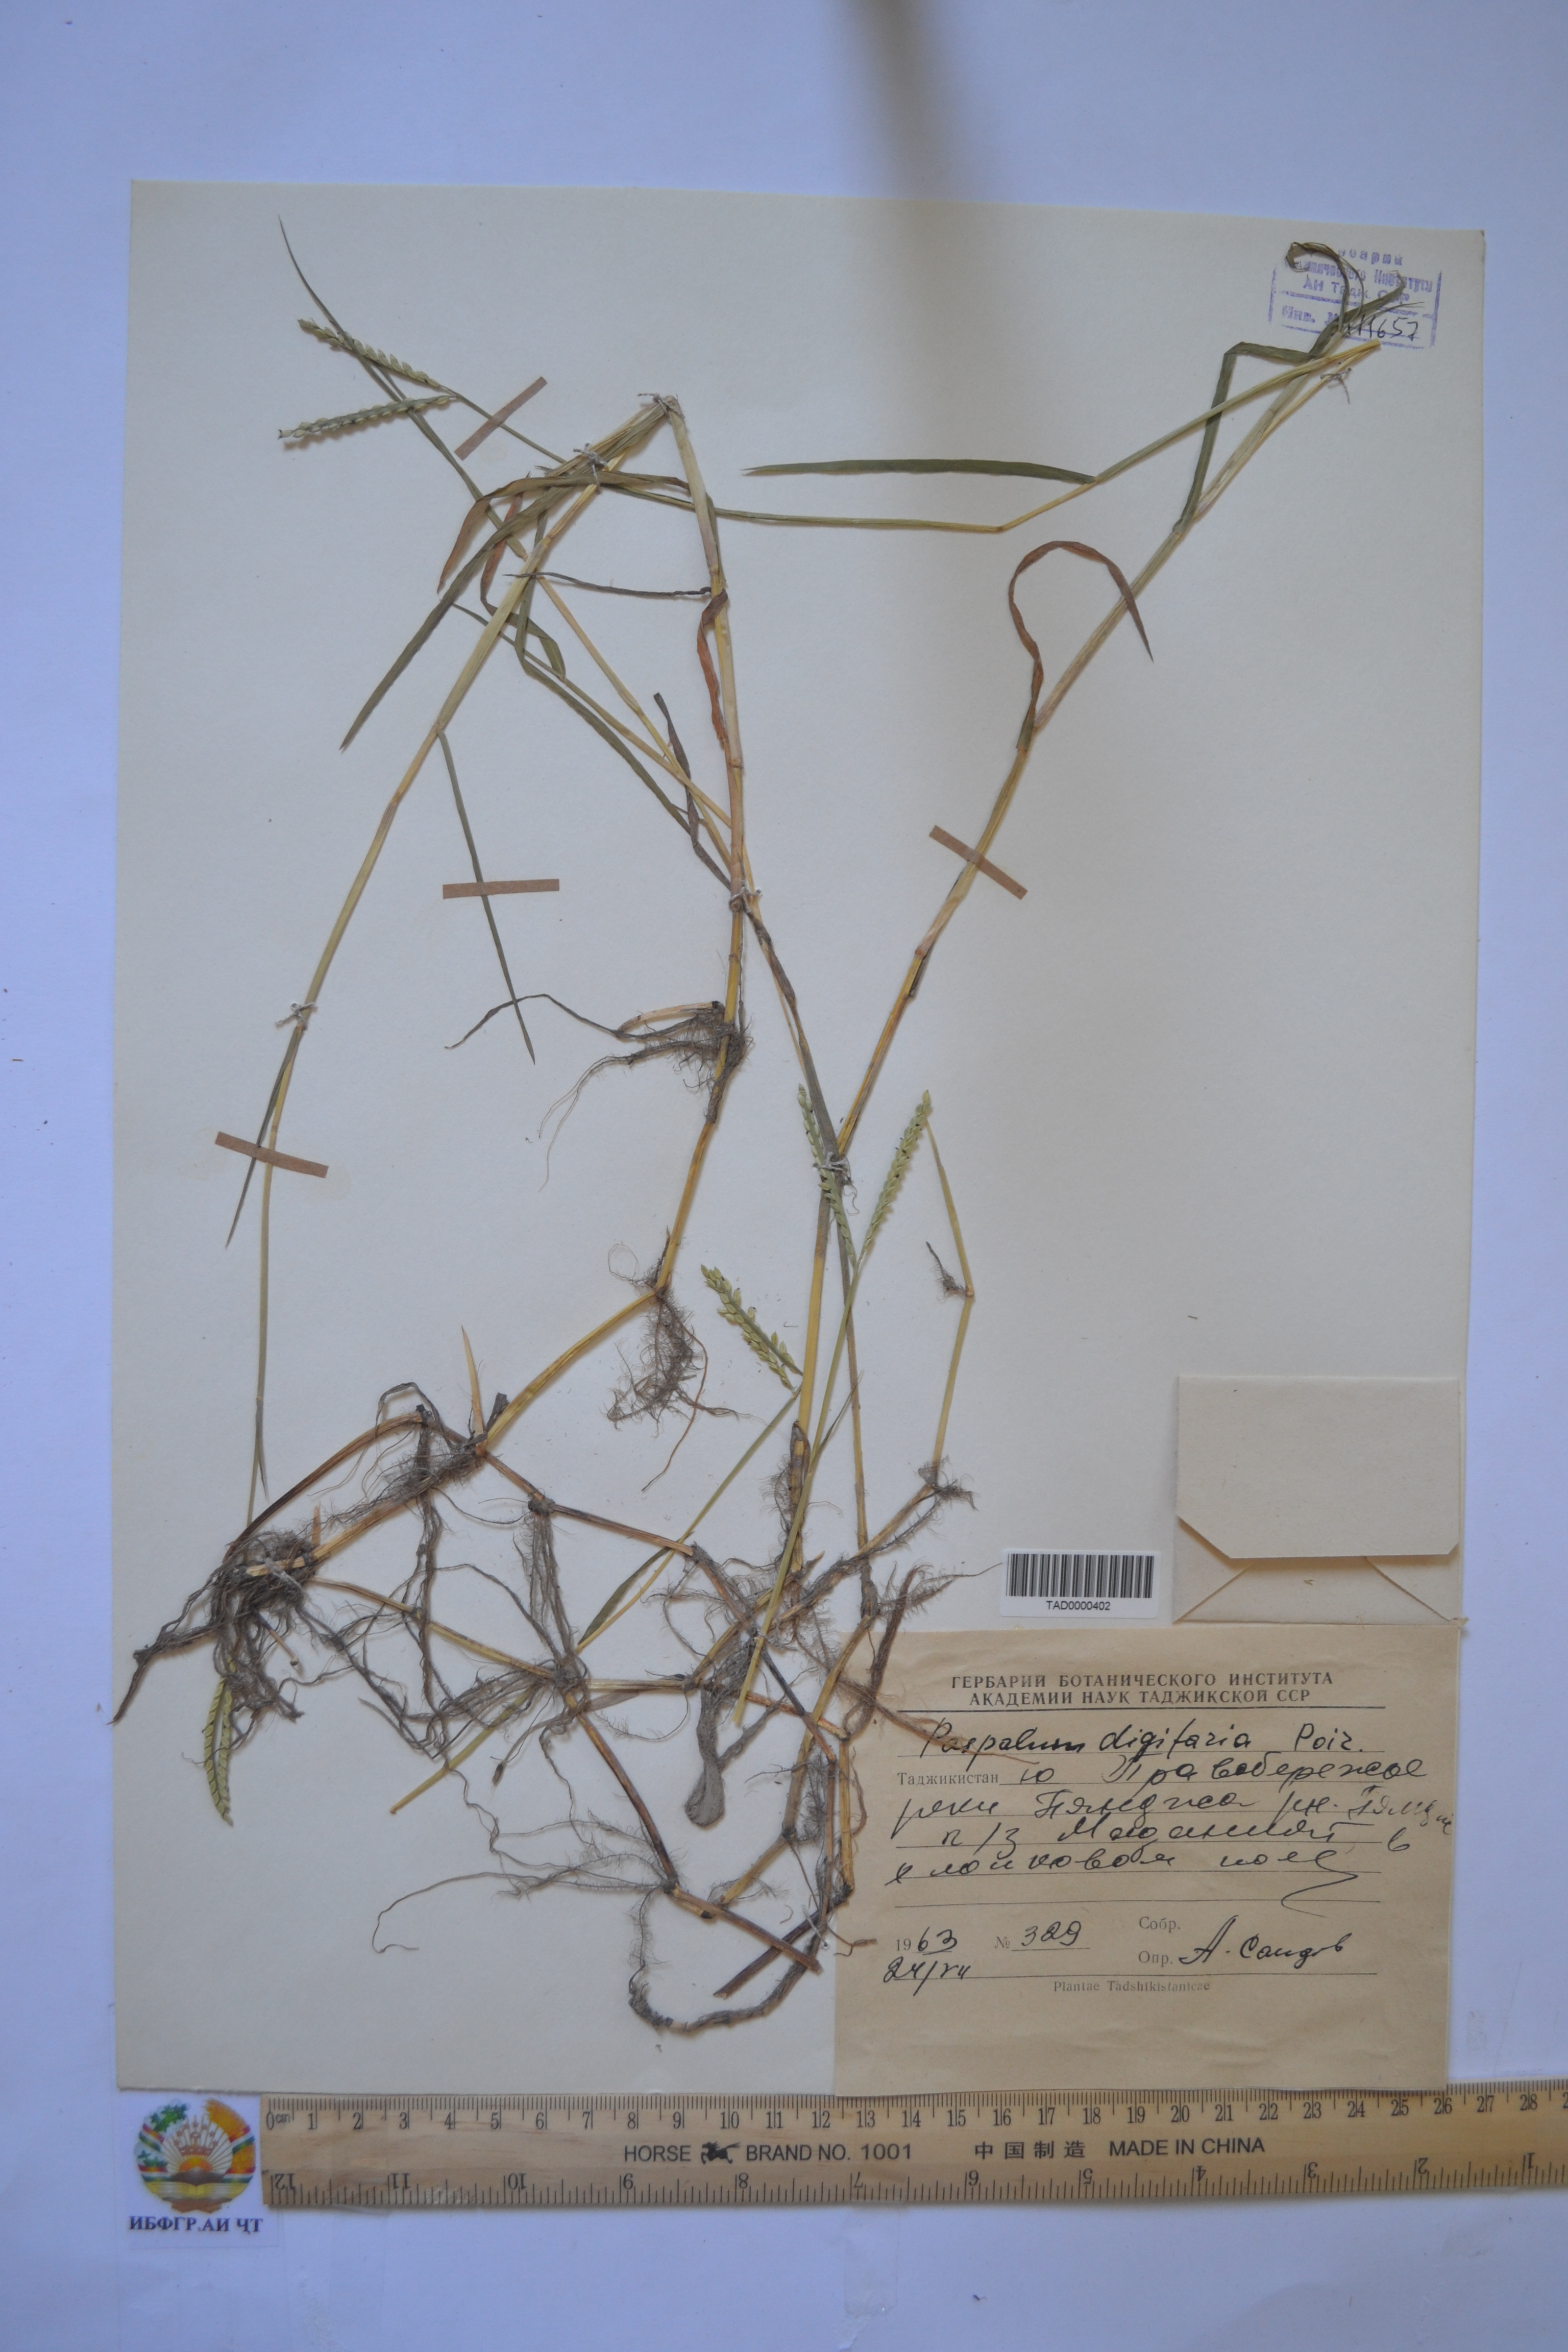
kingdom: Plantae
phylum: Tracheophyta
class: Liliopsida
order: Poales
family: Poaceae
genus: Paspalum
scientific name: Paspalum distichum
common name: Knotgrass
